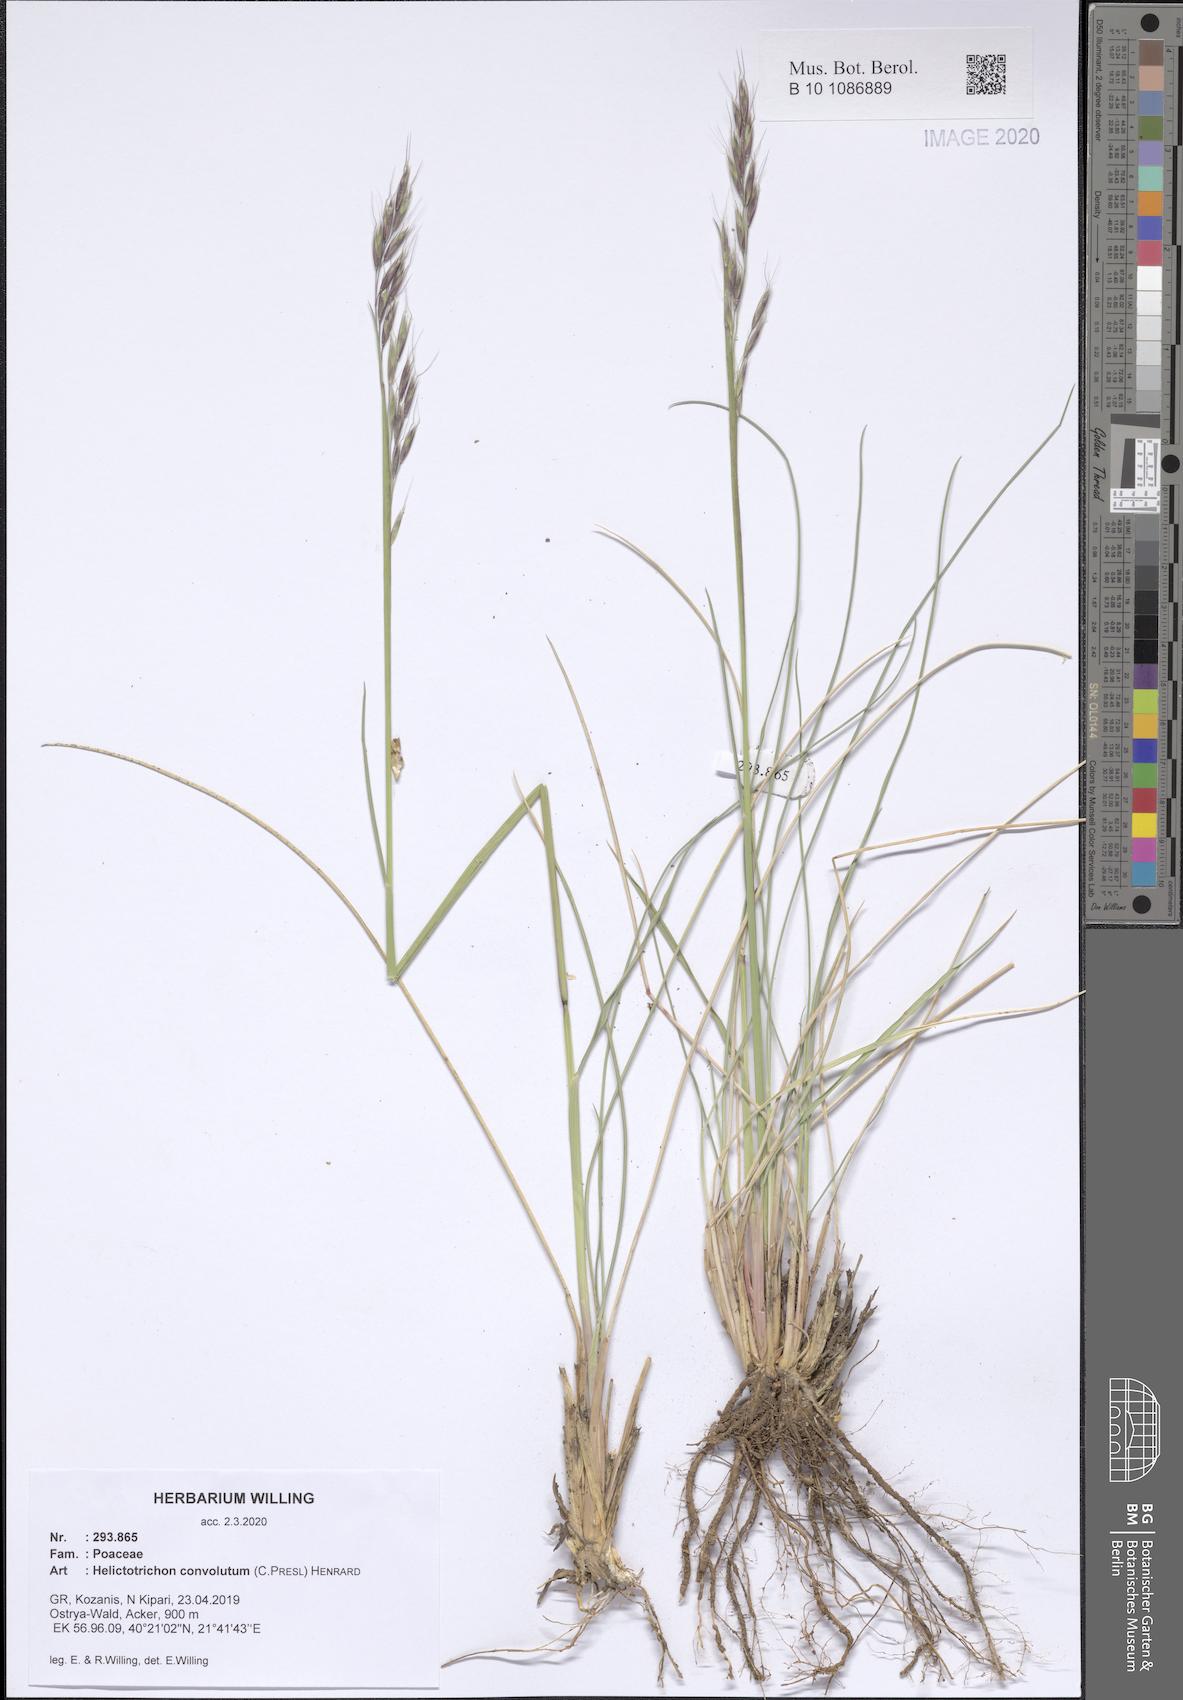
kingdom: Plantae
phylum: Tracheophyta
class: Liliopsida
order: Poales
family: Poaceae
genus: Helictotrichon
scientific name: Helictotrichon convolutum
